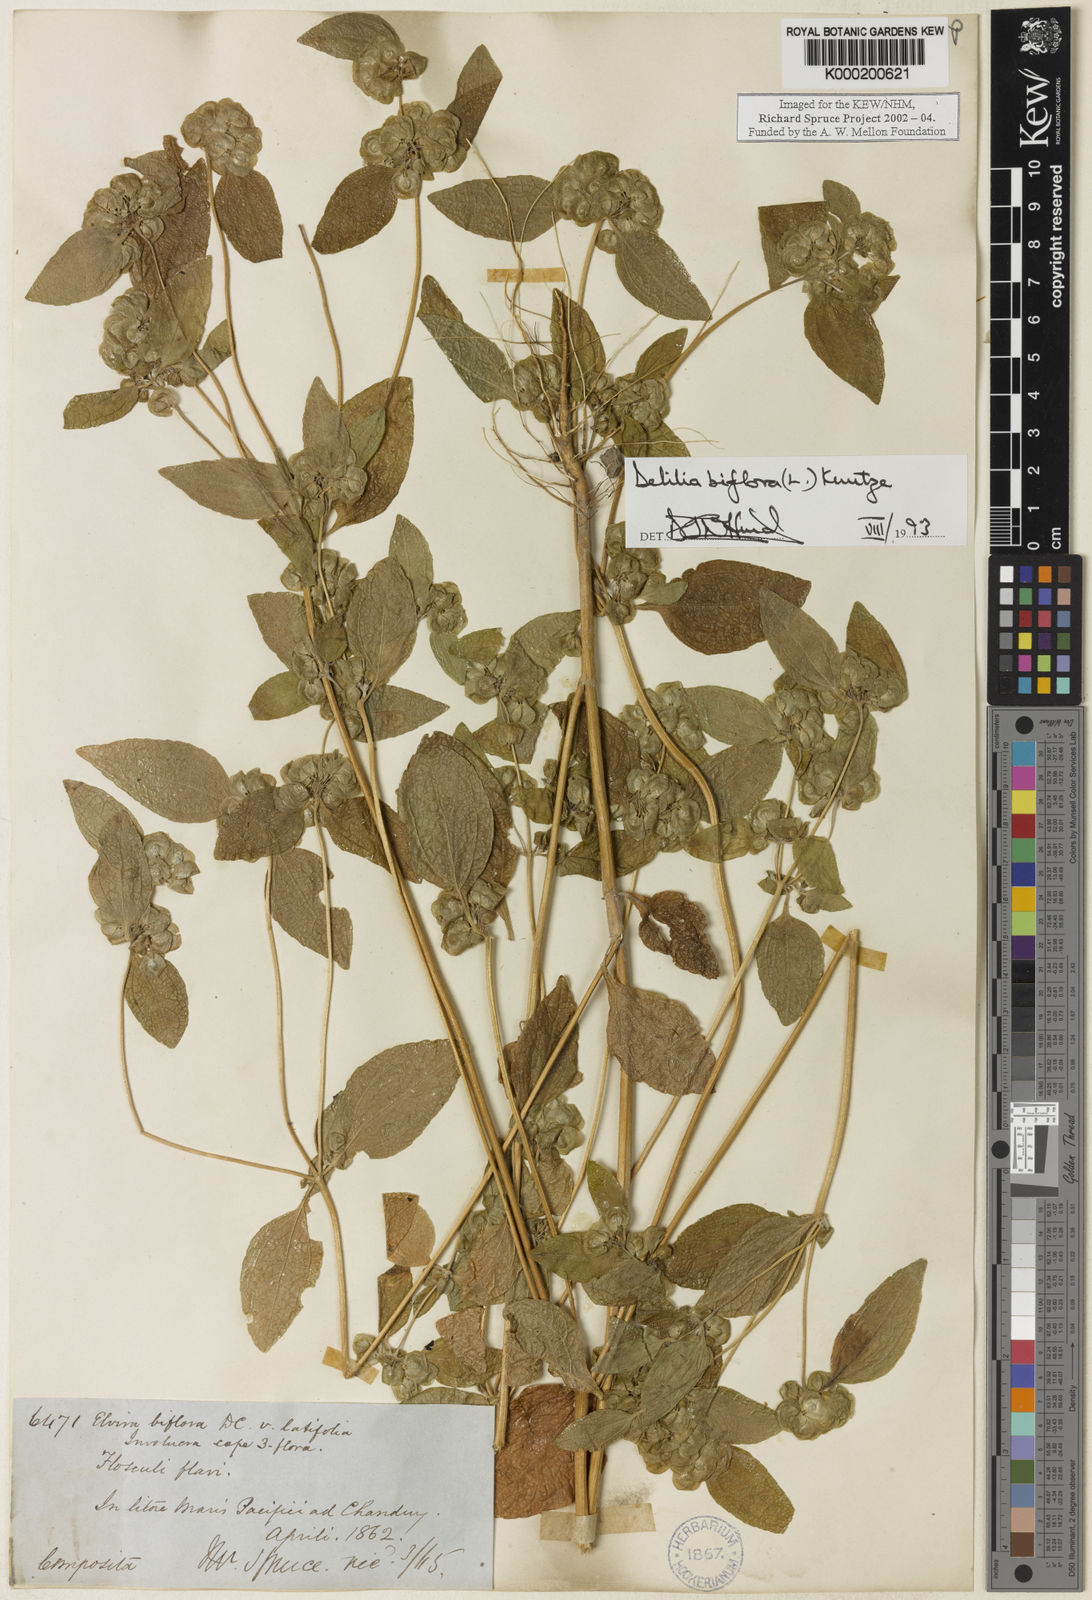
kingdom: Plantae
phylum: Tracheophyta
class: Magnoliopsida
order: Asterales
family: Asteraceae
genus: Delilia
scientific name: Delilia biflora
